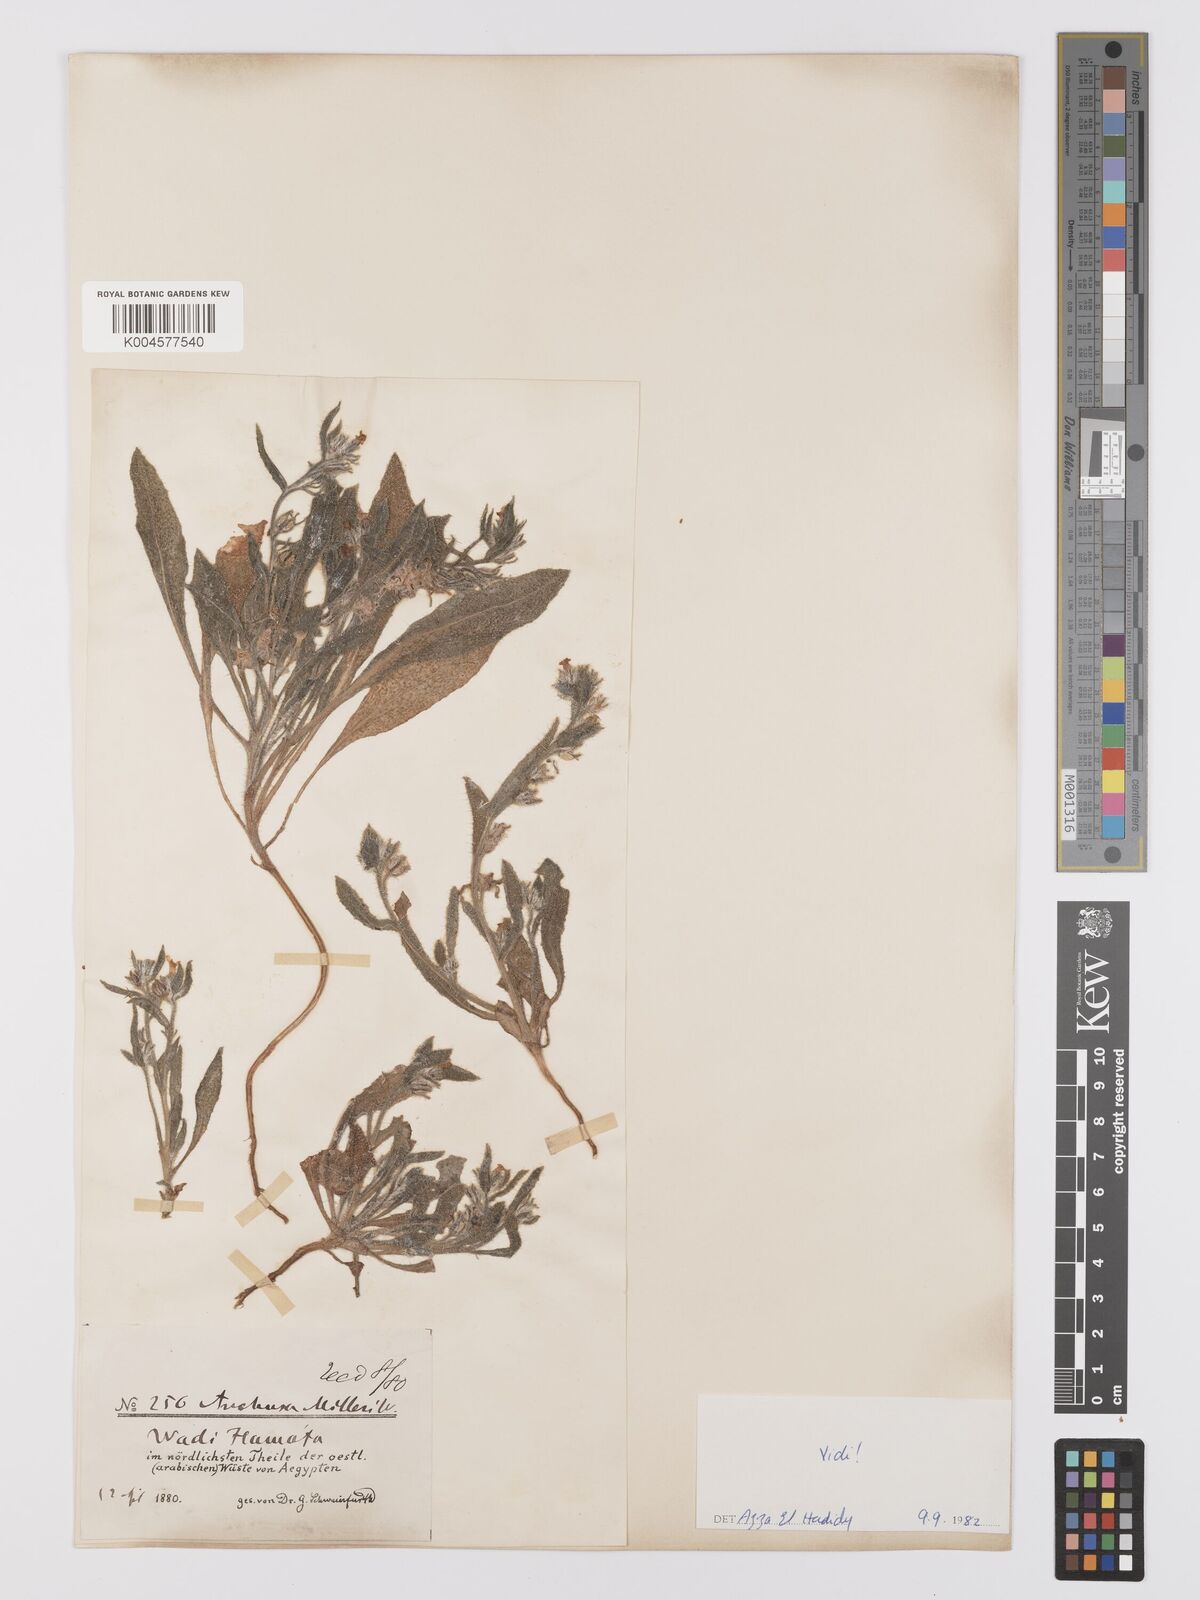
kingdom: Plantae
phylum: Tracheophyta
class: Magnoliopsida
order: Boraginales
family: Boraginaceae
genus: Anchusa
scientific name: Anchusa milleri
